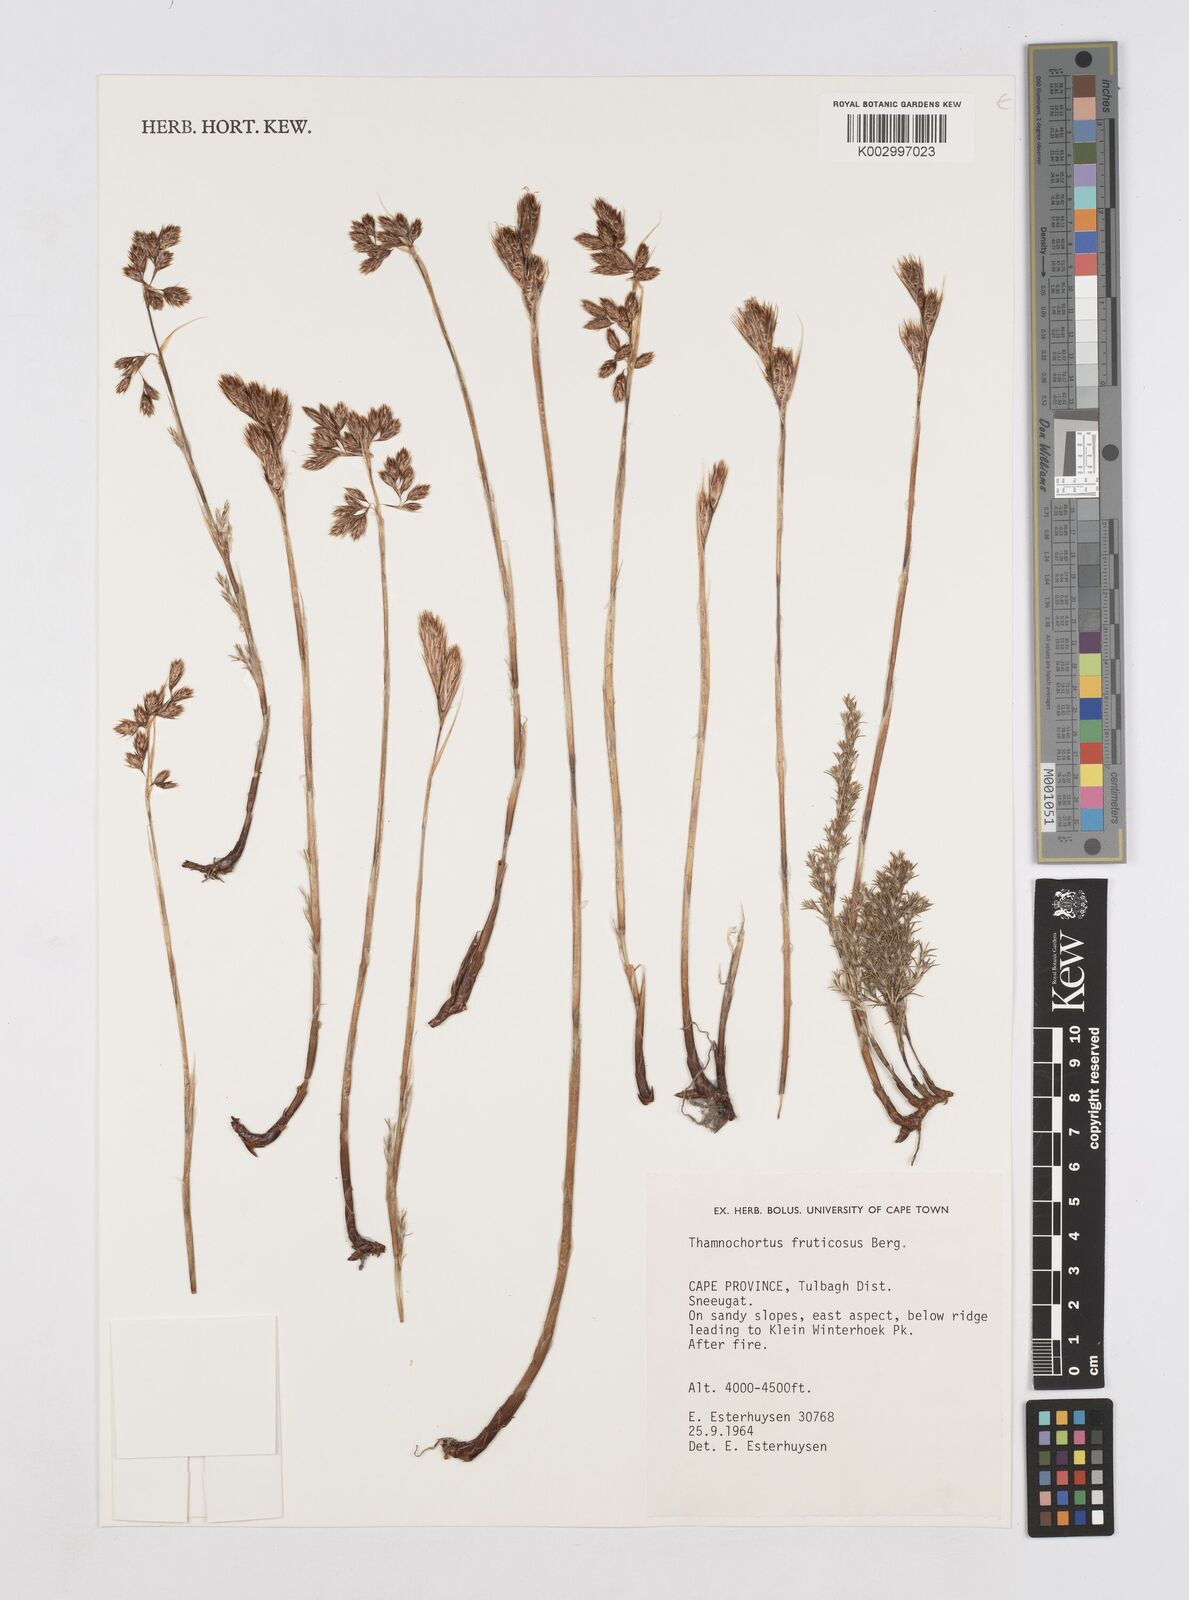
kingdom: Plantae
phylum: Tracheophyta
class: Liliopsida
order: Poales
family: Restionaceae
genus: Thamnochortus
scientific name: Thamnochortus fruticosus
